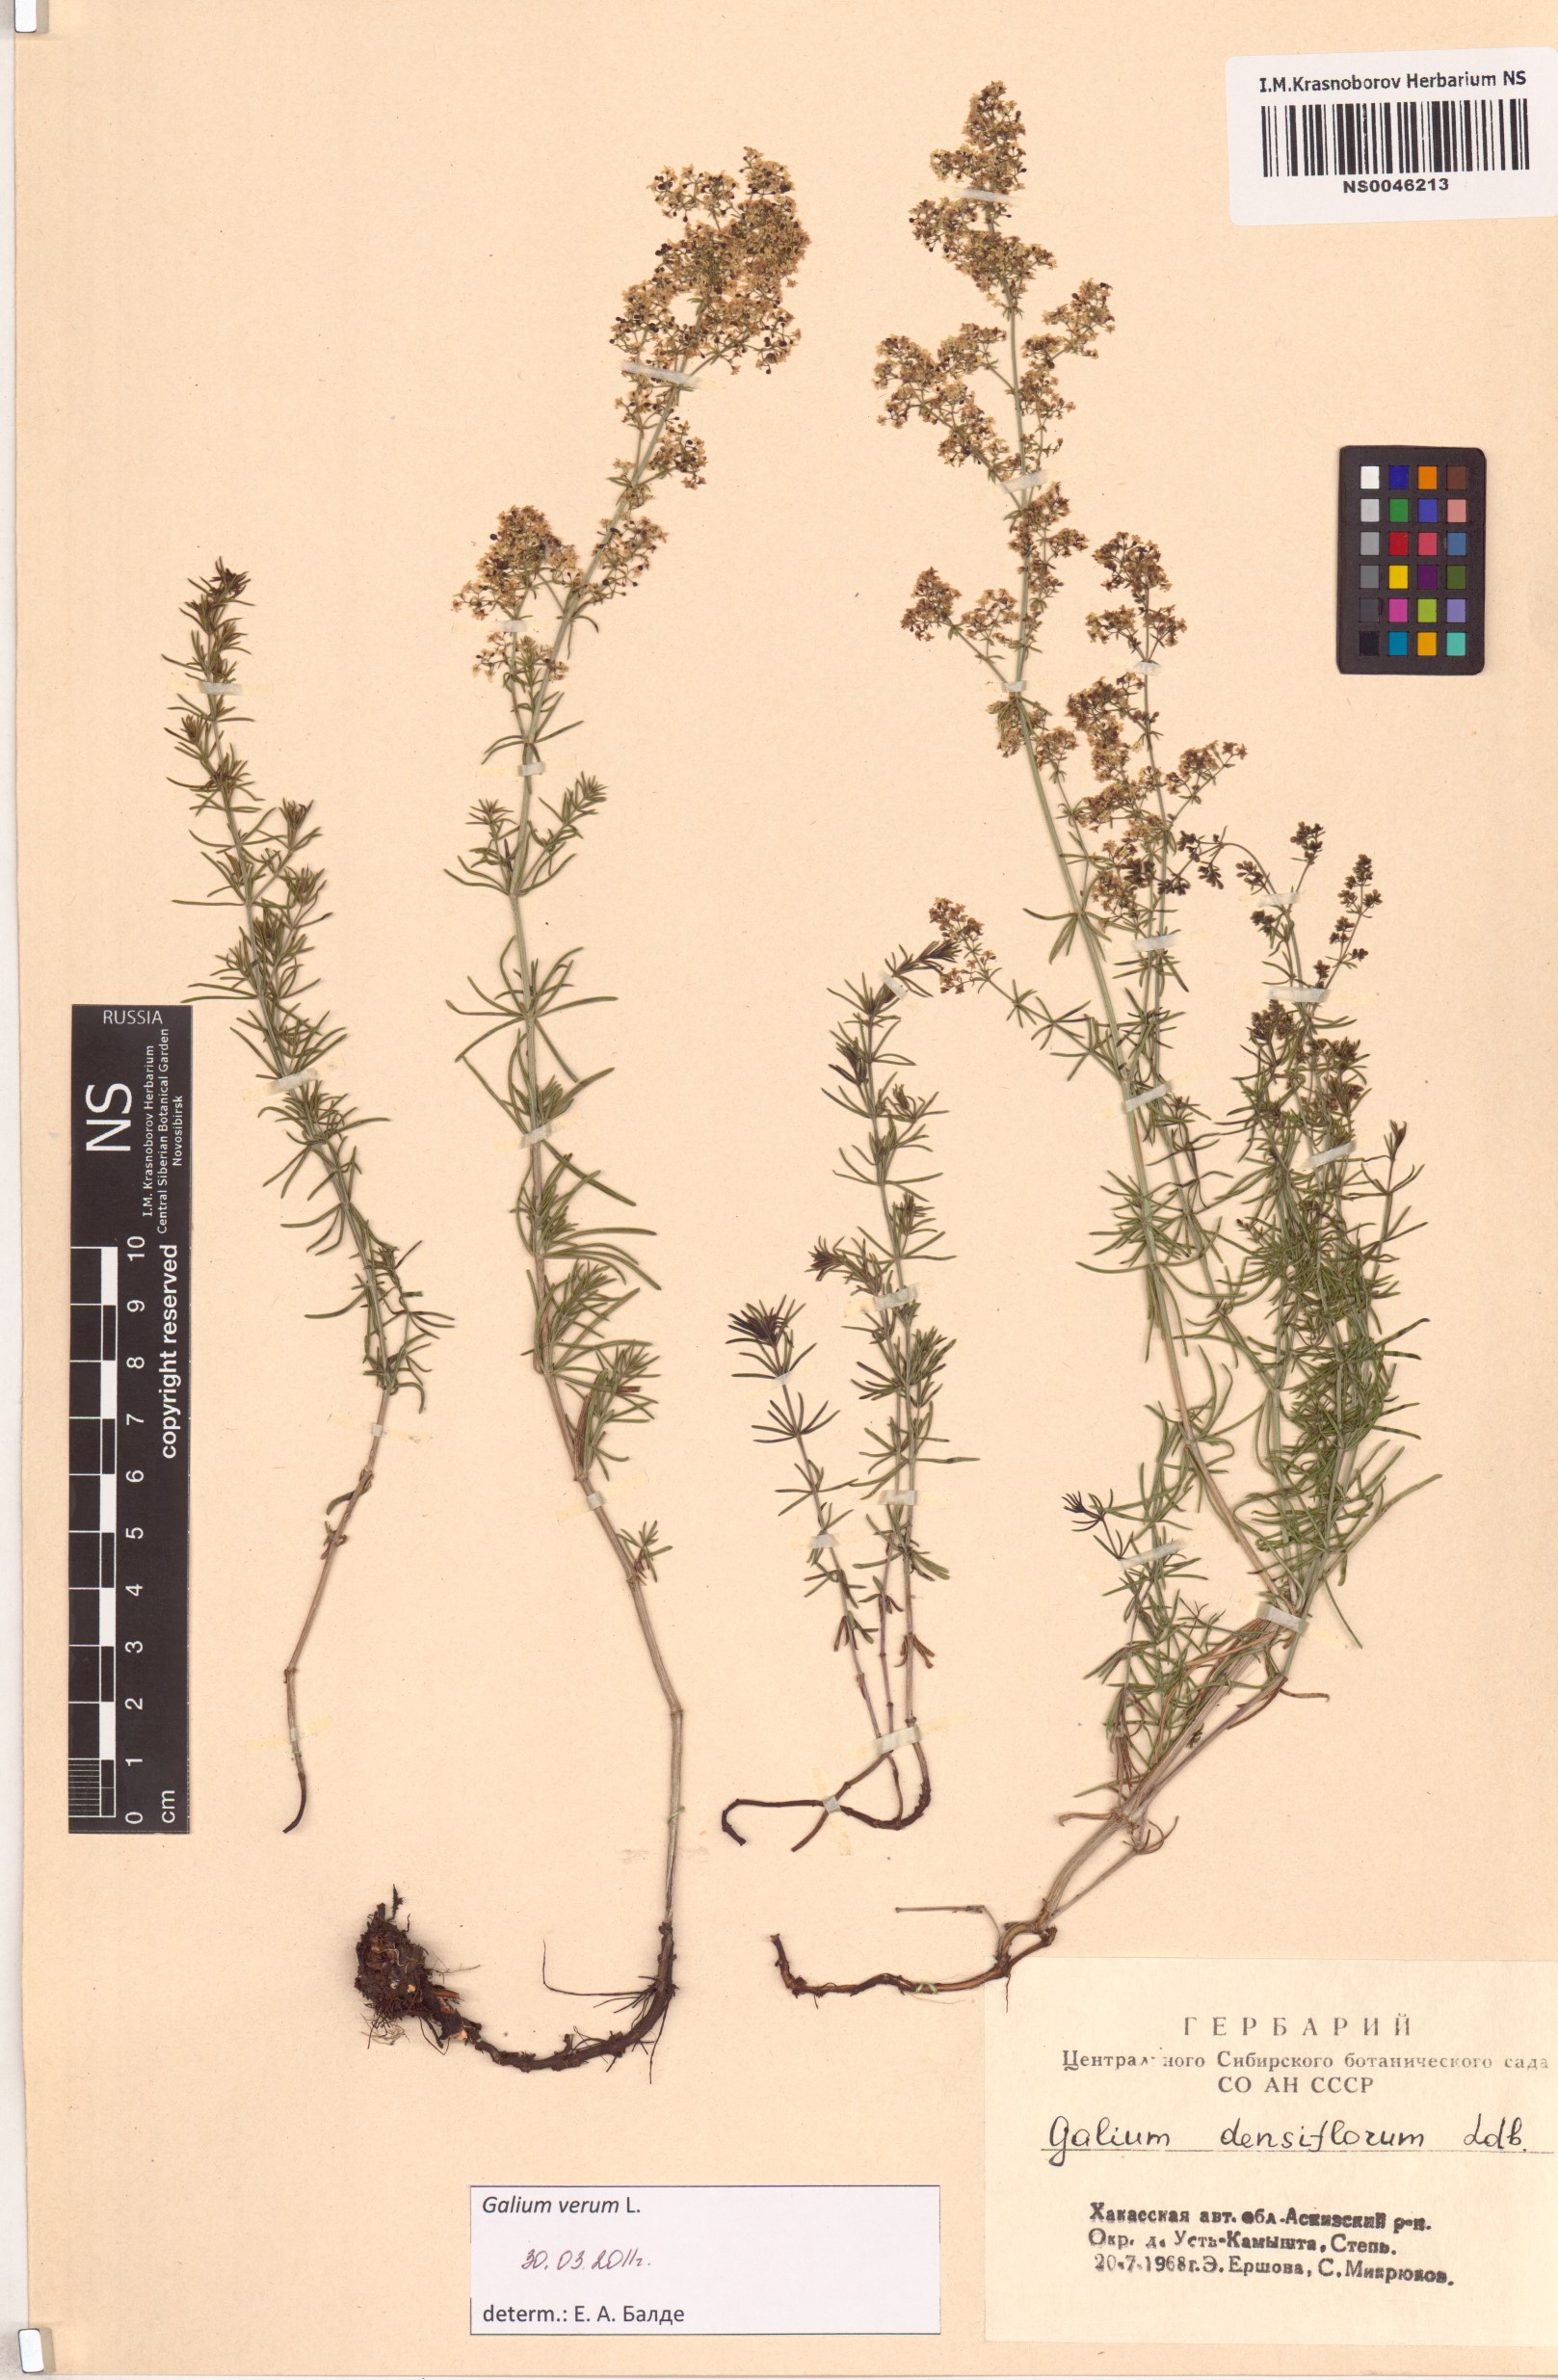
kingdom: Plantae
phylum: Tracheophyta
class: Magnoliopsida
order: Gentianales
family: Rubiaceae
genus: Galium
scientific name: Galium verum
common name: Lady's bedstraw
